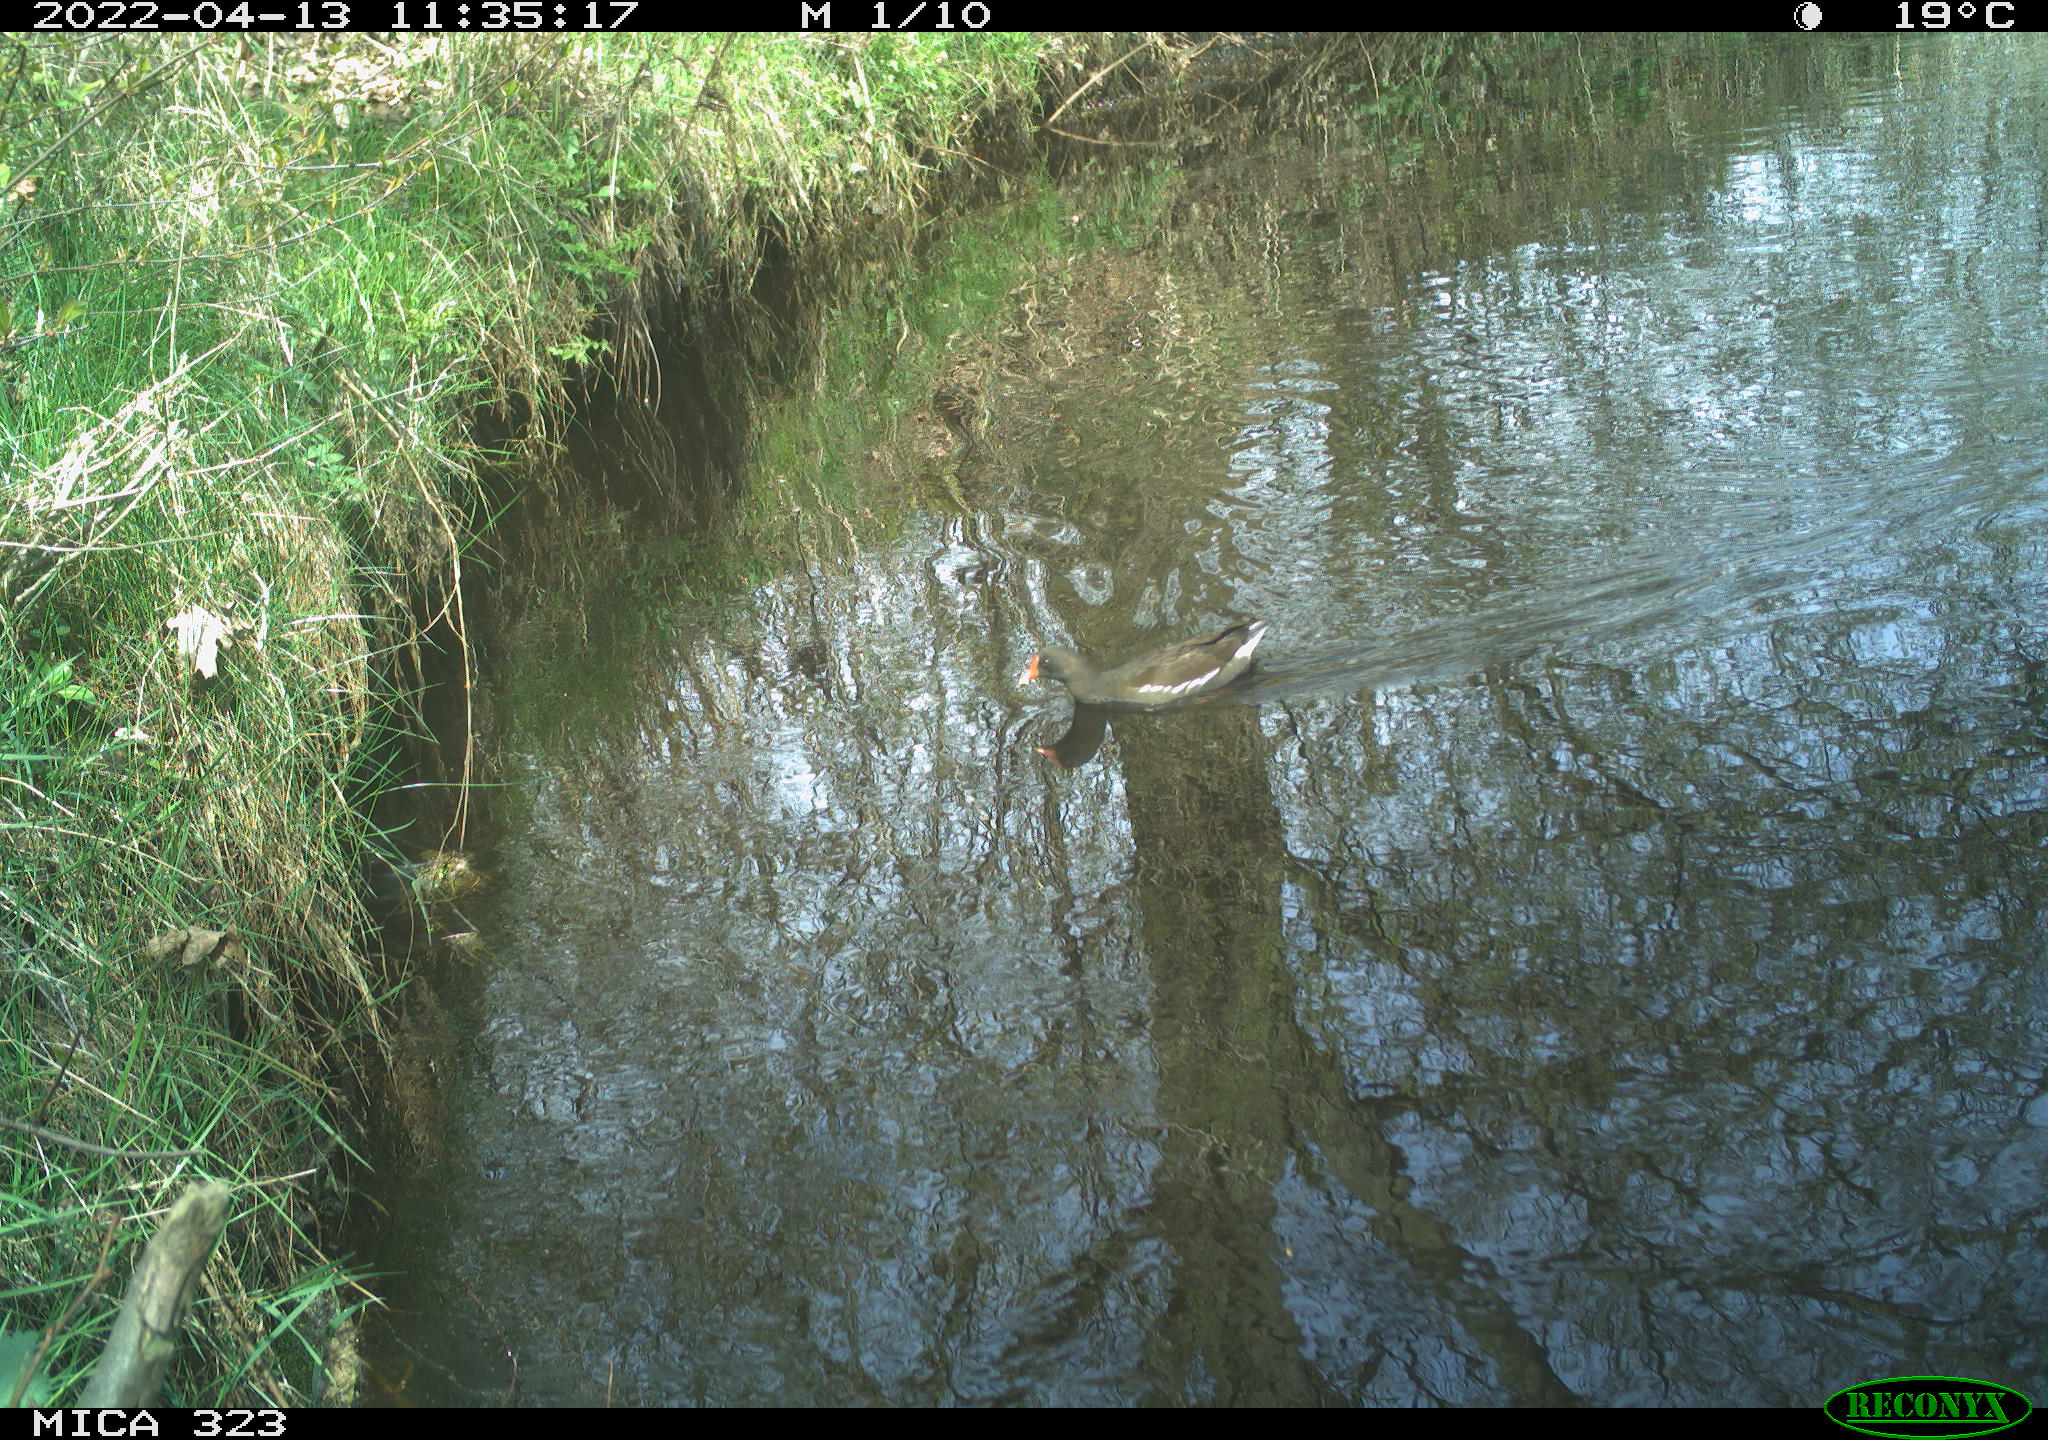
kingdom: Animalia
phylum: Chordata
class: Aves
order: Gruiformes
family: Rallidae
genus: Gallinula
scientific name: Gallinula chloropus
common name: Common moorhen
